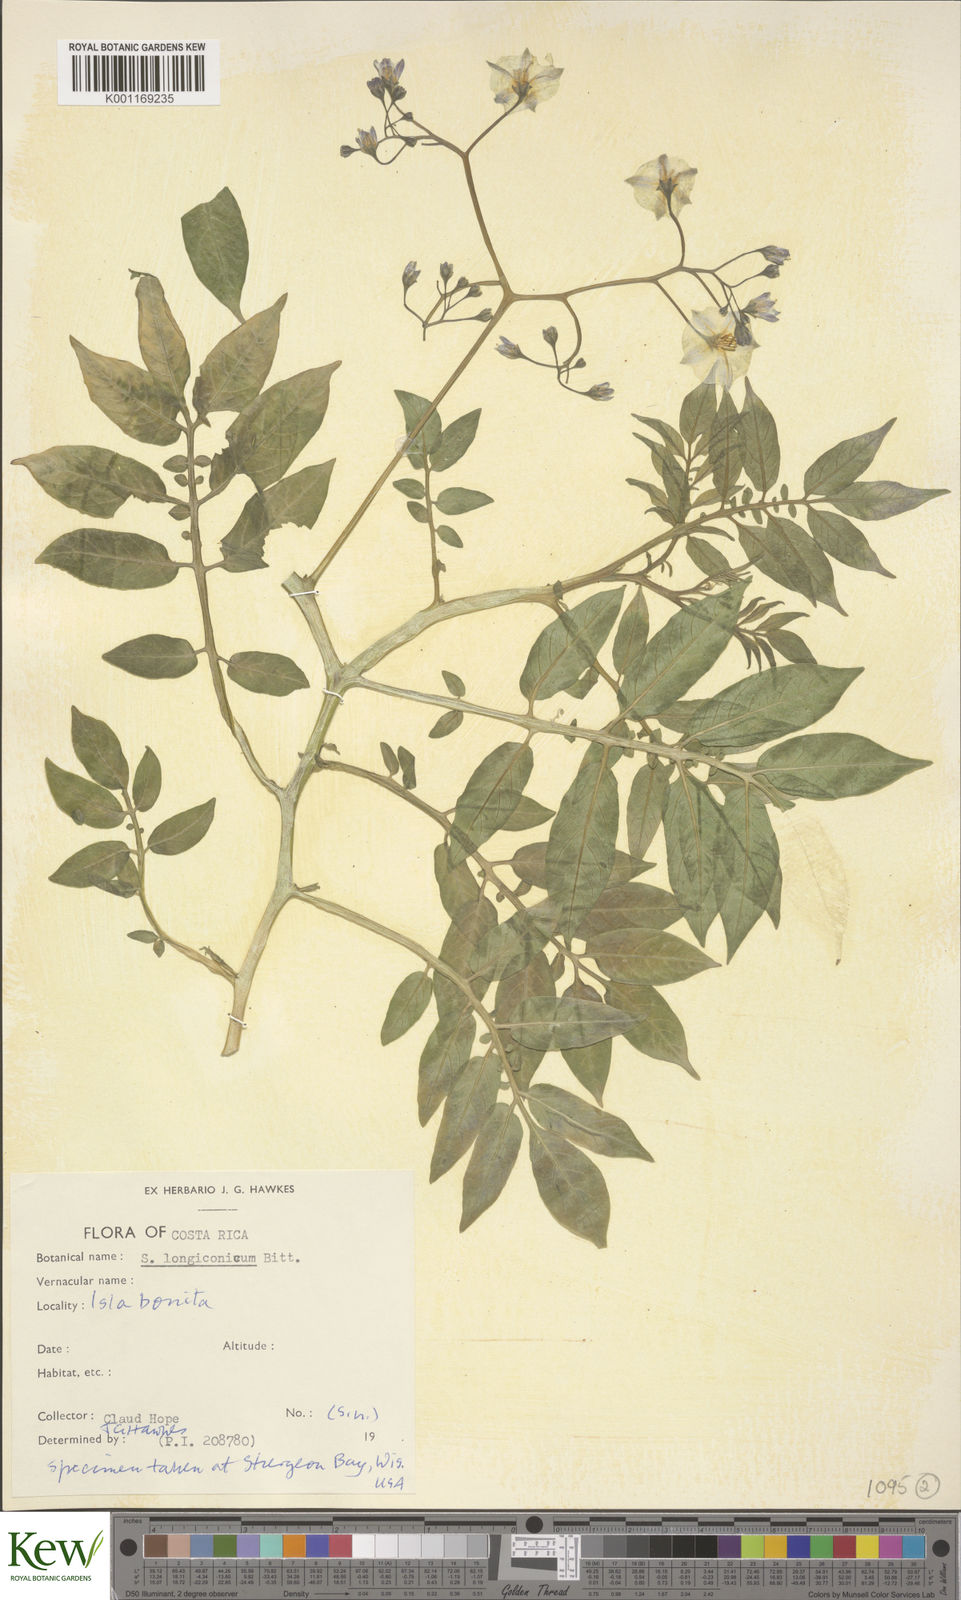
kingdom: Plantae
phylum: Tracheophyta
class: Magnoliopsida
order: Solanales
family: Solanaceae
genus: Solanum
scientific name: Solanum longiconicum
